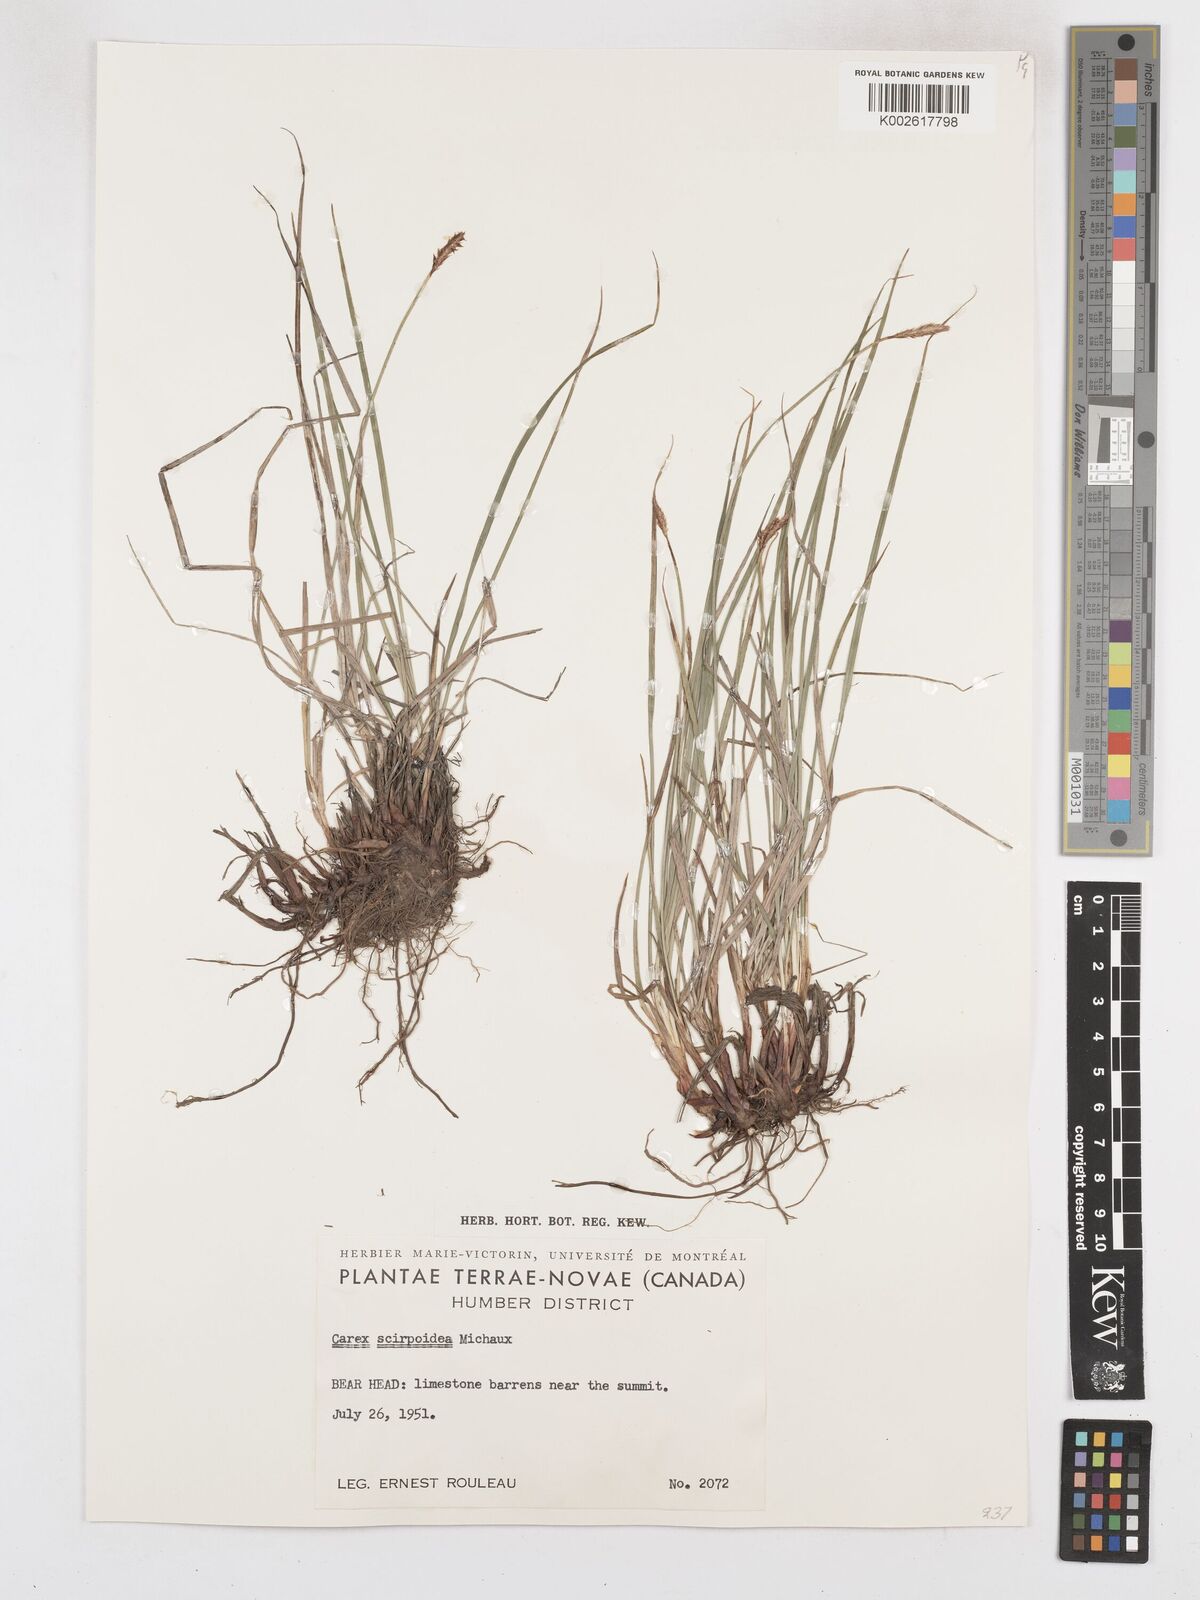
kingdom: Plantae
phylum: Tracheophyta
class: Liliopsida
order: Poales
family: Cyperaceae
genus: Carex
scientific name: Carex scirpoidea
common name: Canada single-spike sedge
